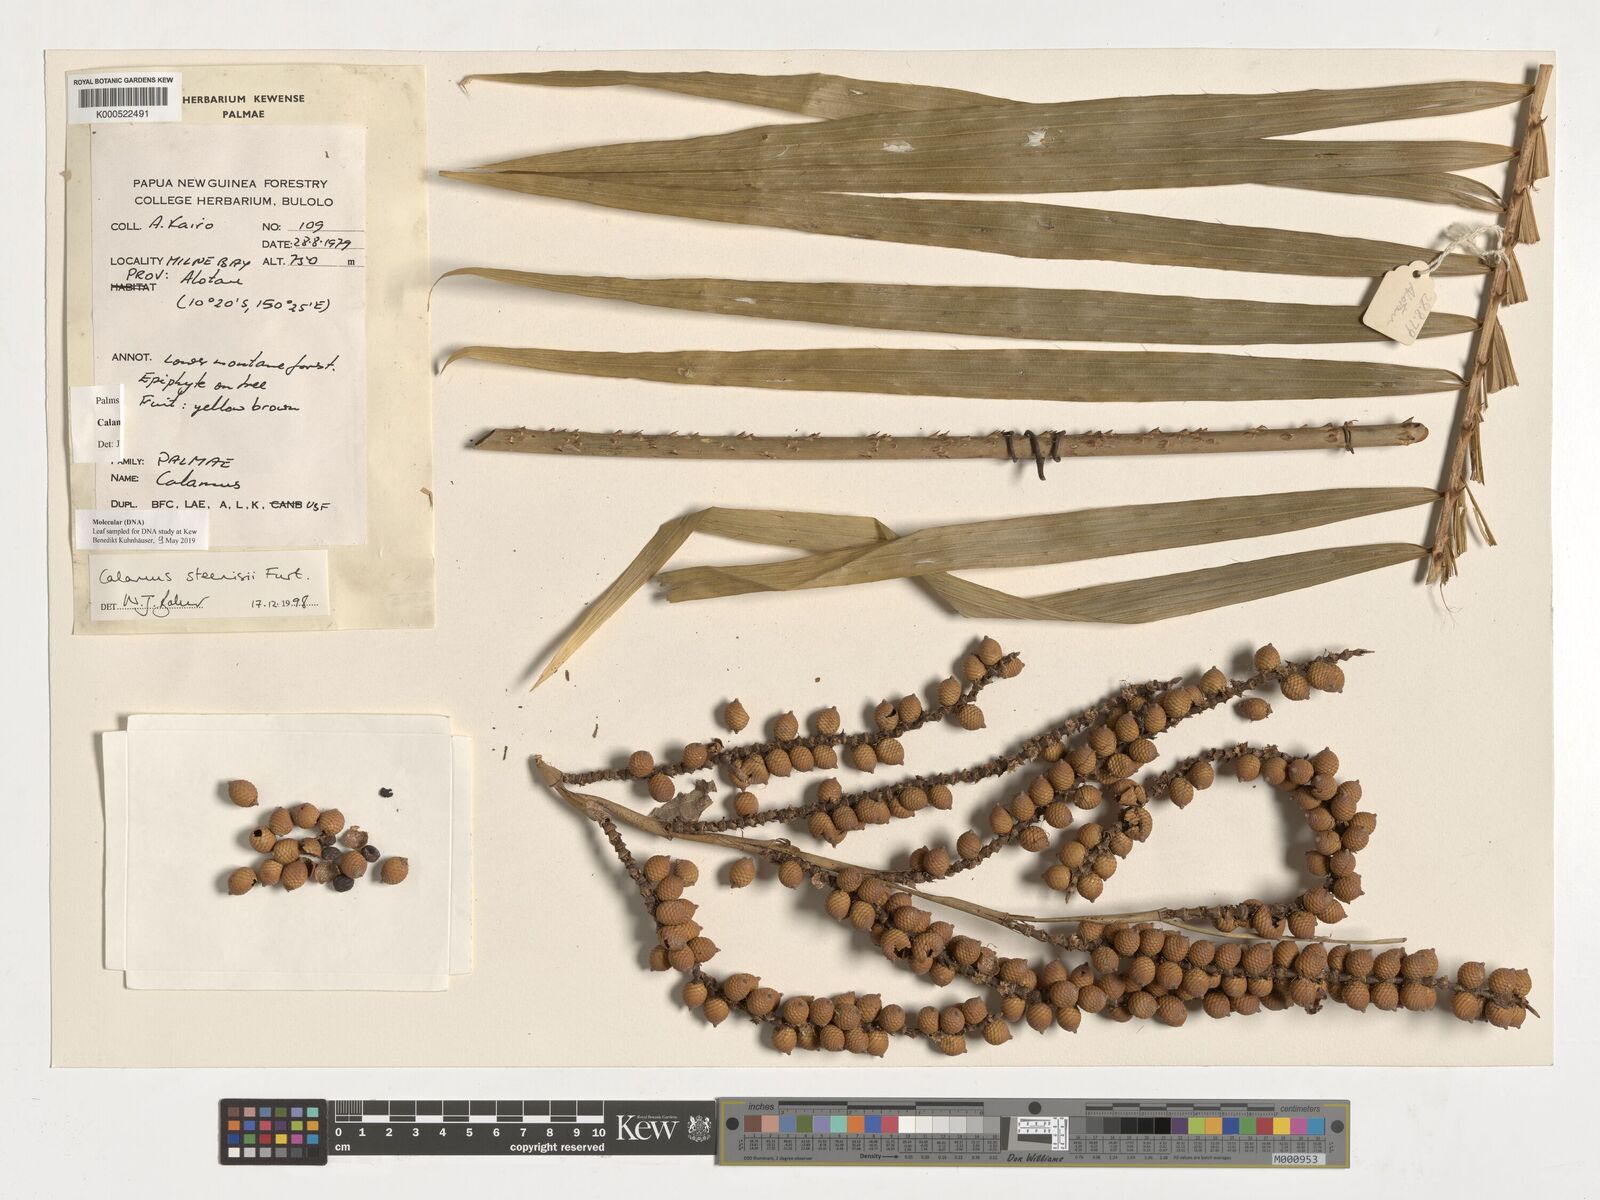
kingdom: Plantae
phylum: Tracheophyta
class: Liliopsida
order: Arecales
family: Arecaceae
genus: Calamus
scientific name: Calamus pholidostachys
